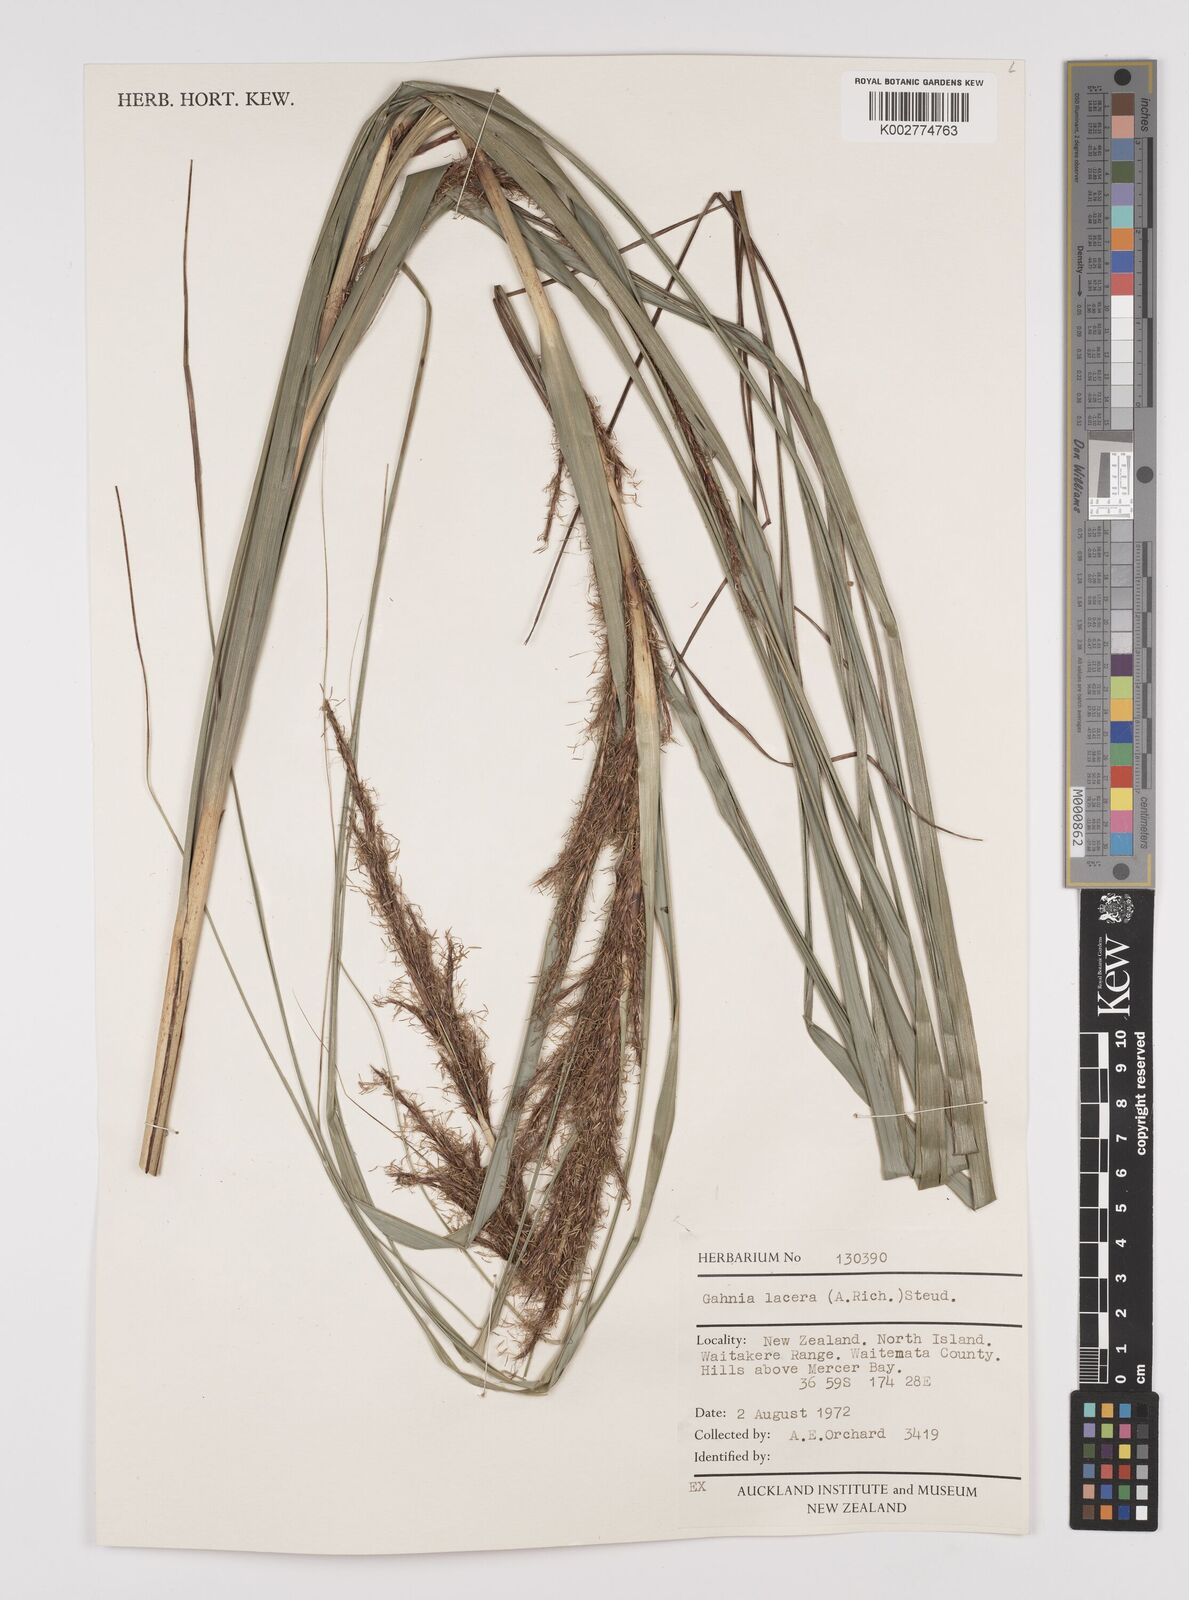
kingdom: Plantae
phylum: Tracheophyta
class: Liliopsida
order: Poales
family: Cyperaceae
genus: Gahnia
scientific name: Gahnia lacera
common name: Sawsedge
